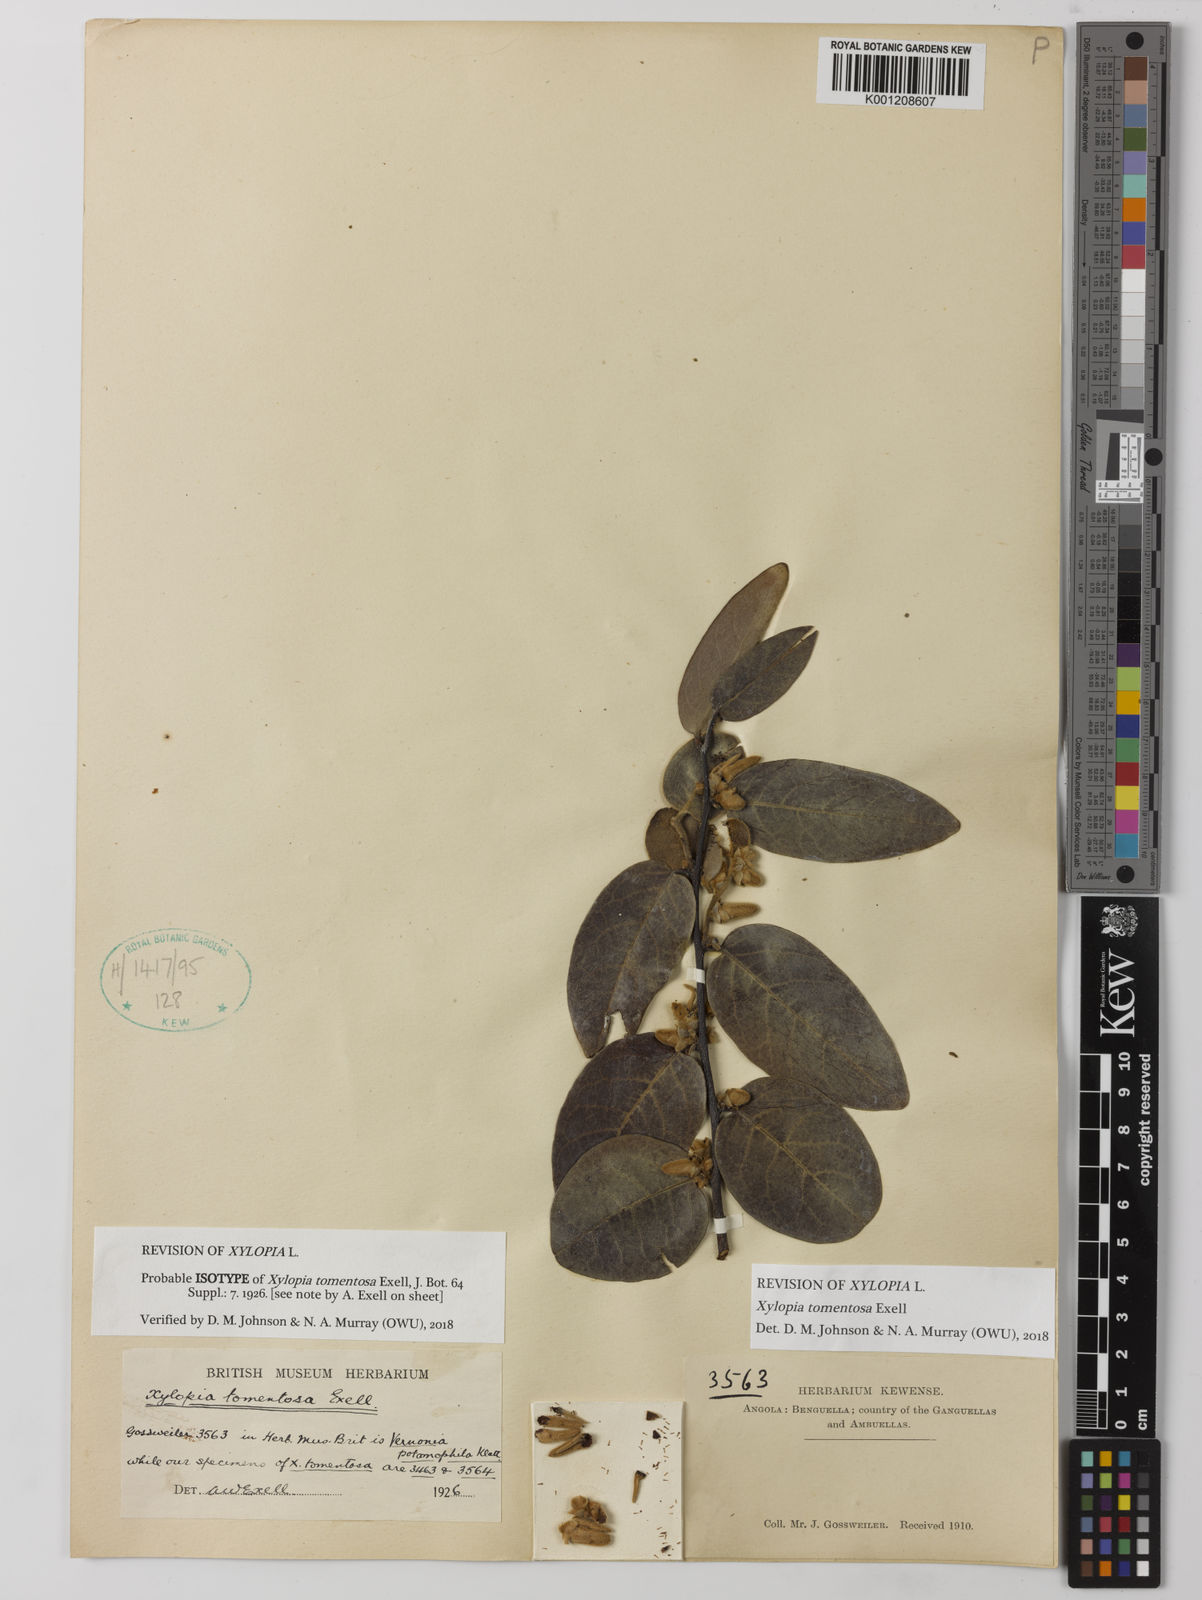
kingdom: Plantae
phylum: Tracheophyta
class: Magnoliopsida
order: Magnoliales
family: Annonaceae
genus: Xylopia
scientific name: Xylopia tomentosa
